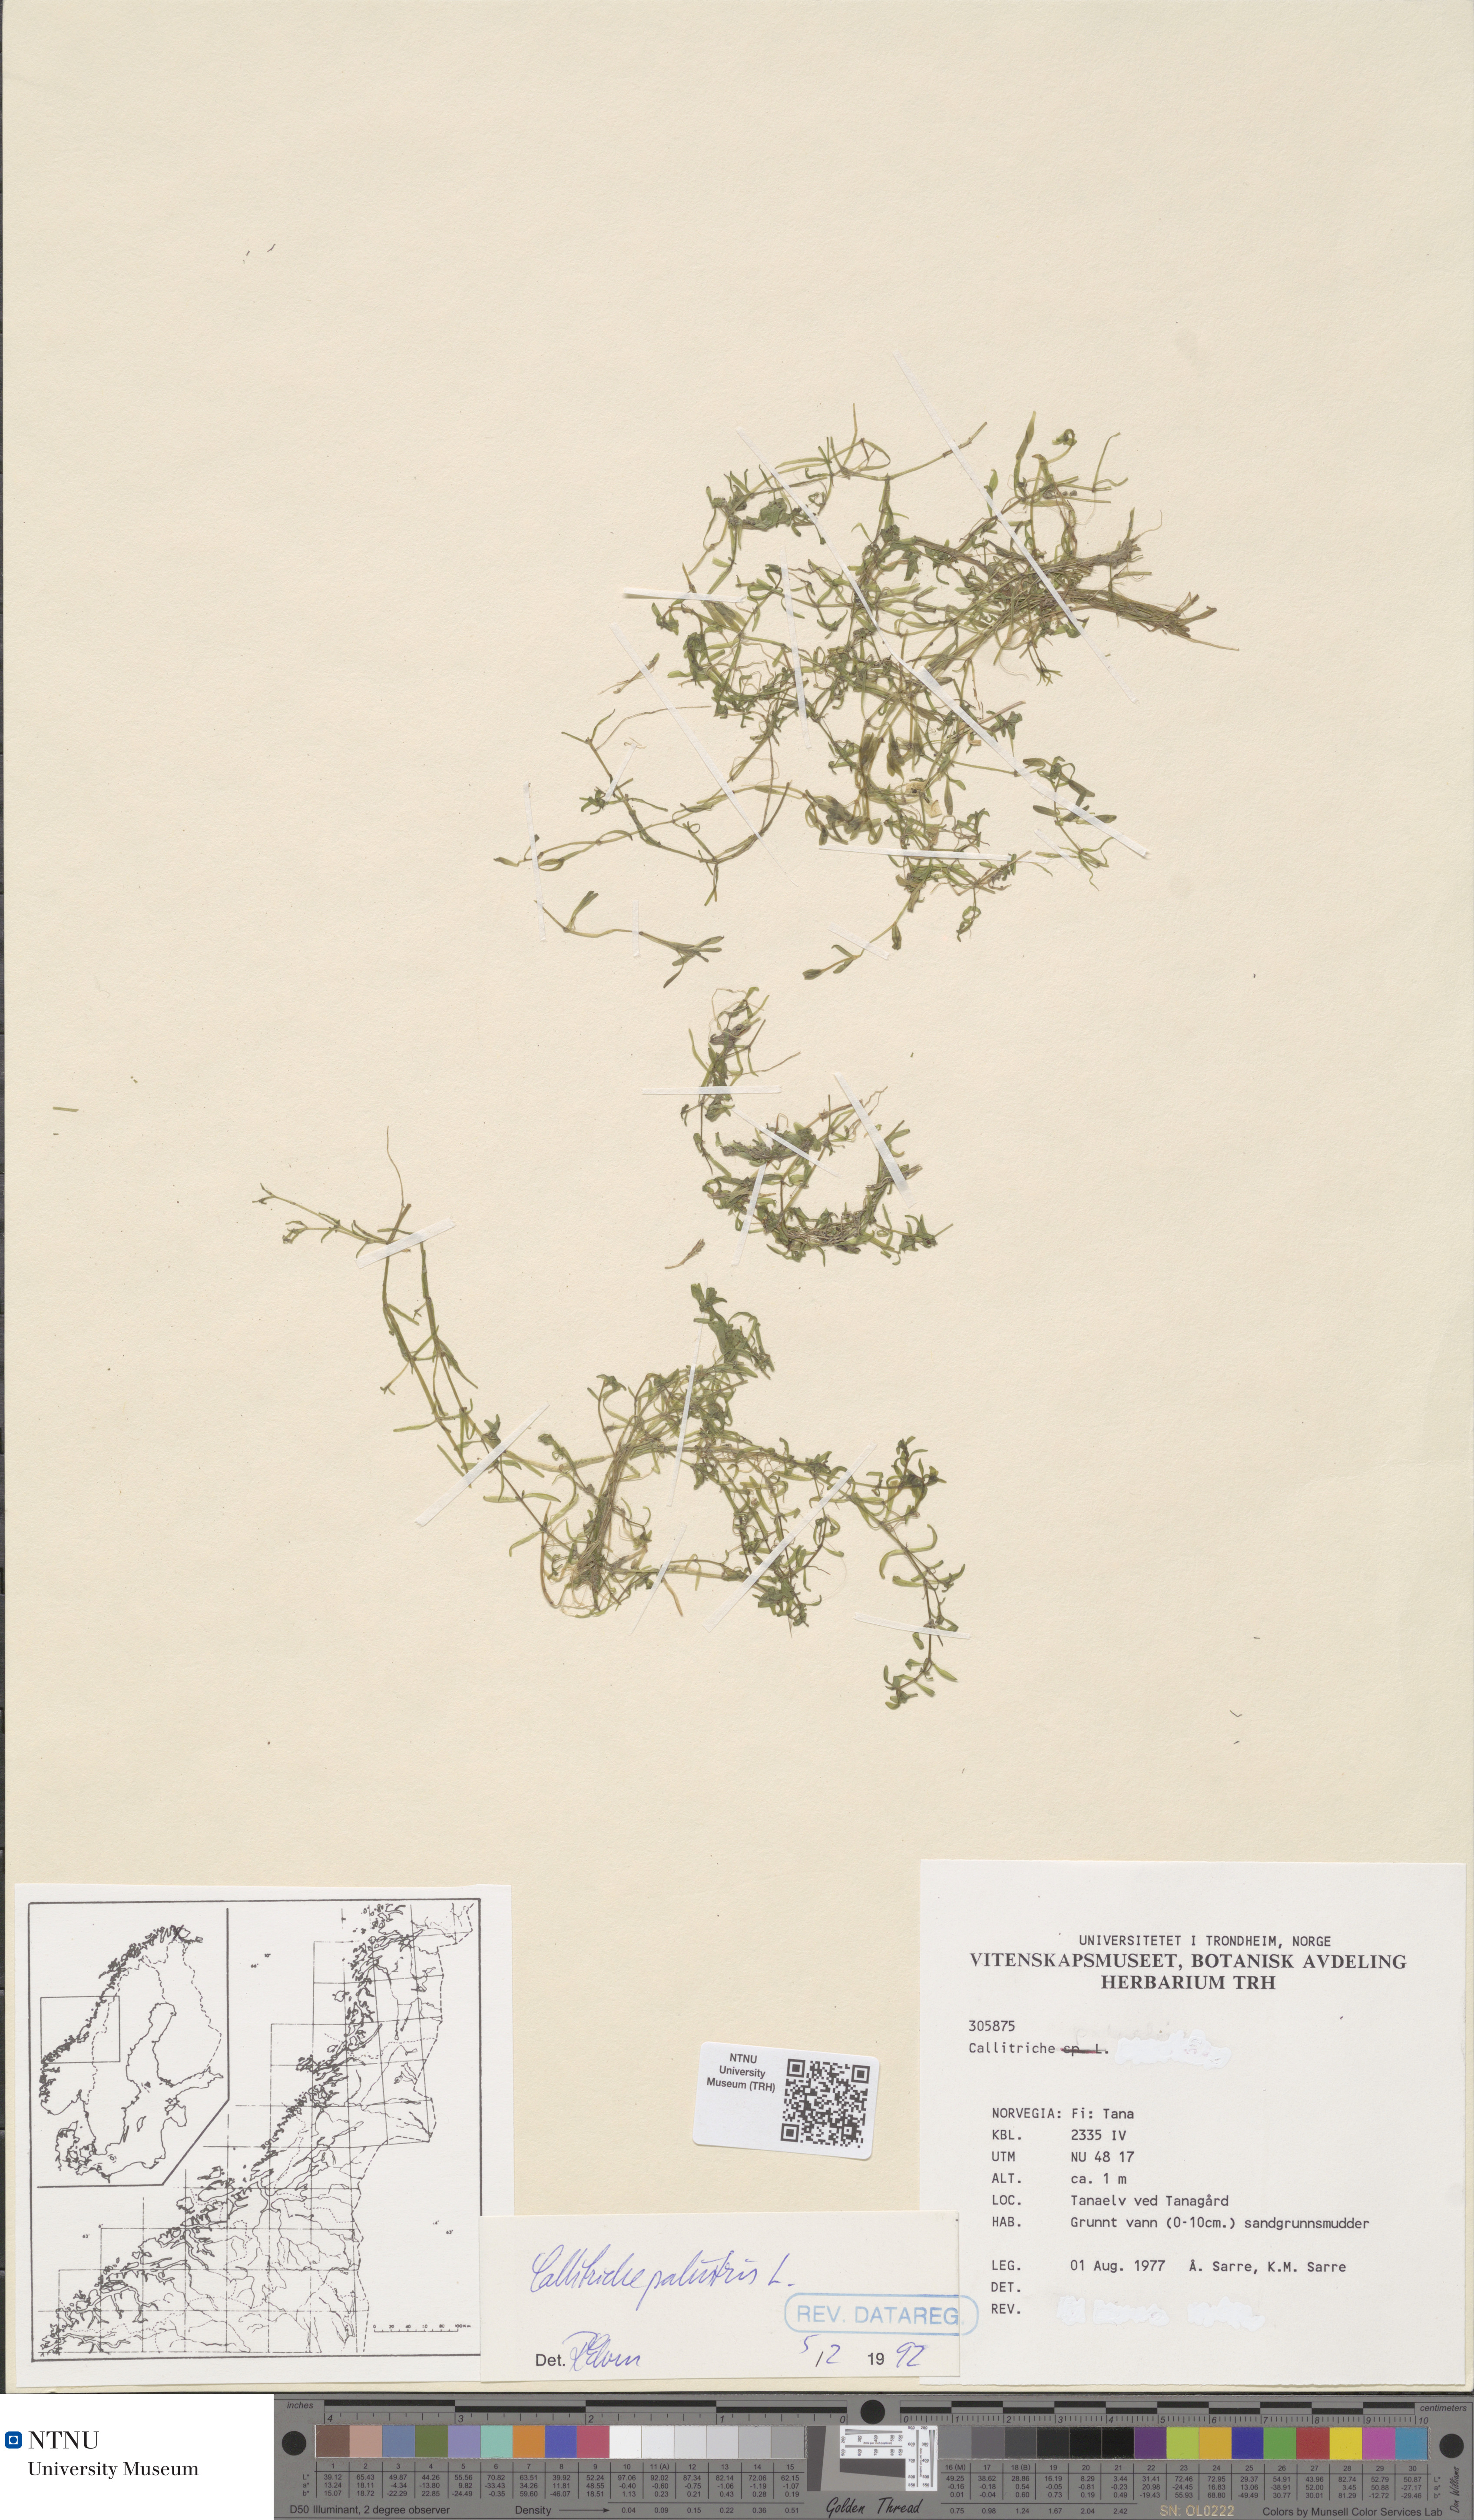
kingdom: Plantae
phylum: Tracheophyta
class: Magnoliopsida
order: Lamiales
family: Plantaginaceae
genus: Callitriche
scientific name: Callitriche palustris
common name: Spring water-starwort
